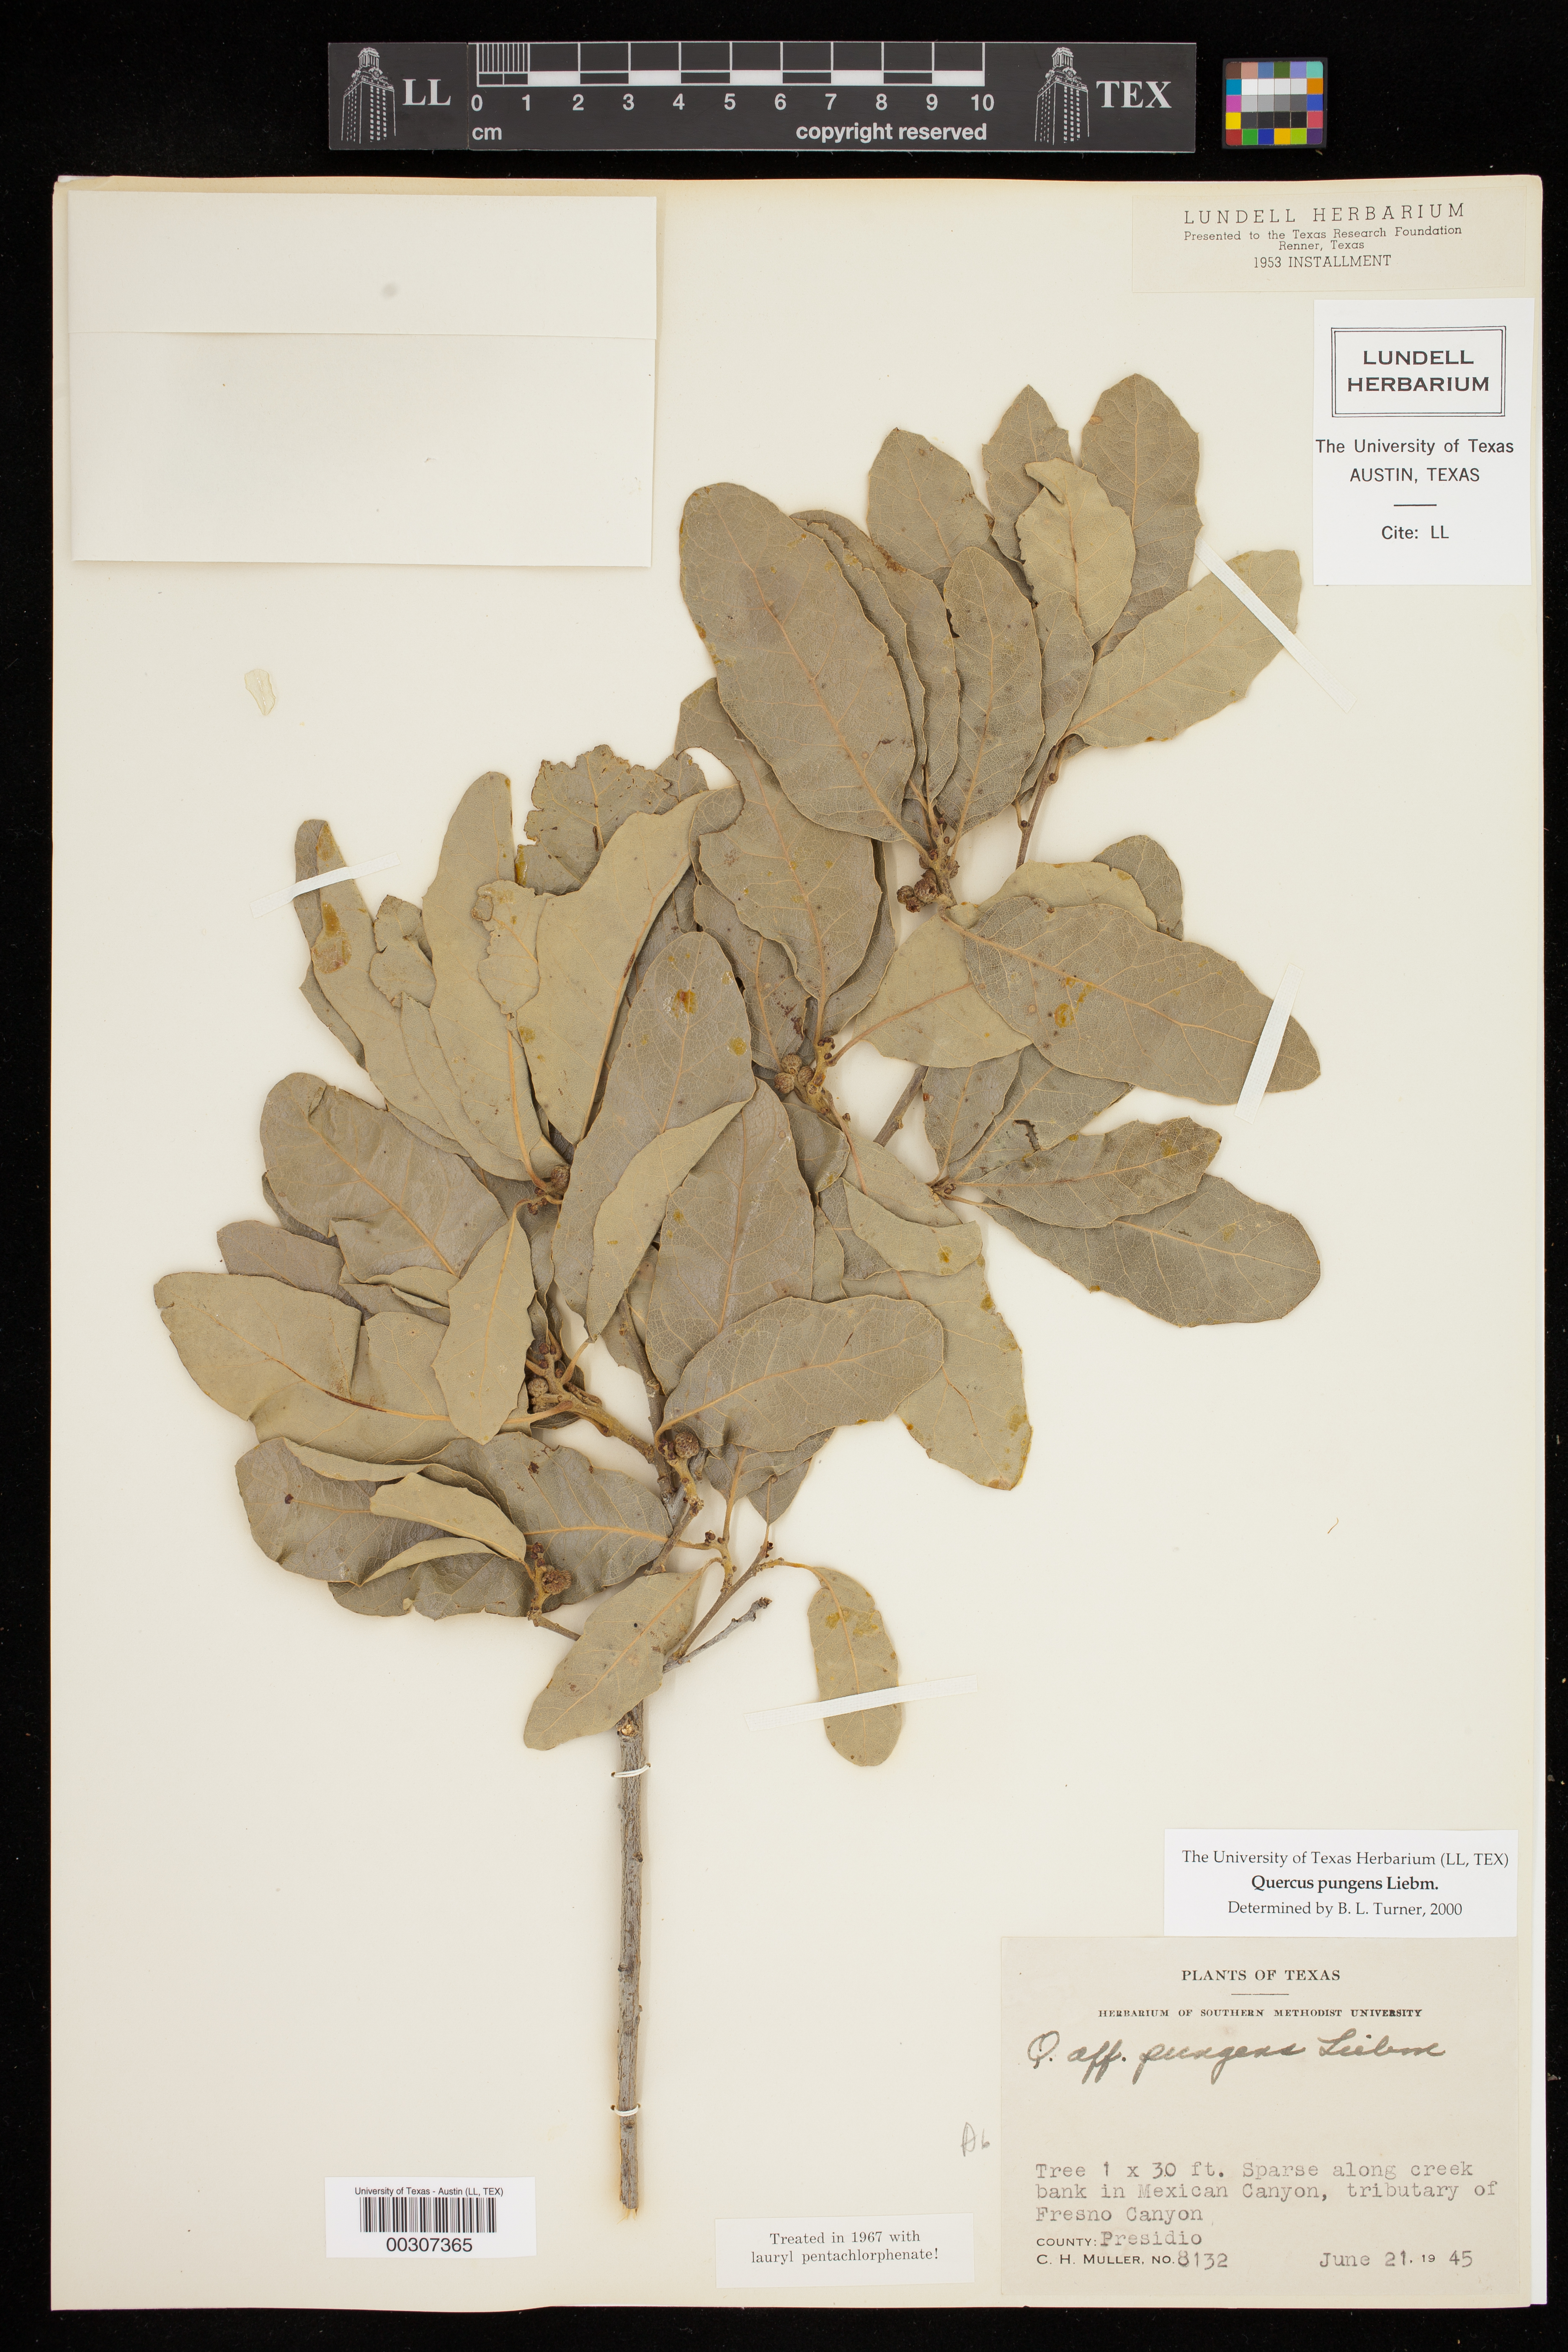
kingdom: Plantae
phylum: Tracheophyta
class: Magnoliopsida
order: Fagales
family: Fagaceae
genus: Quercus
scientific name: Quercus pungens
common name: Pungent oak
